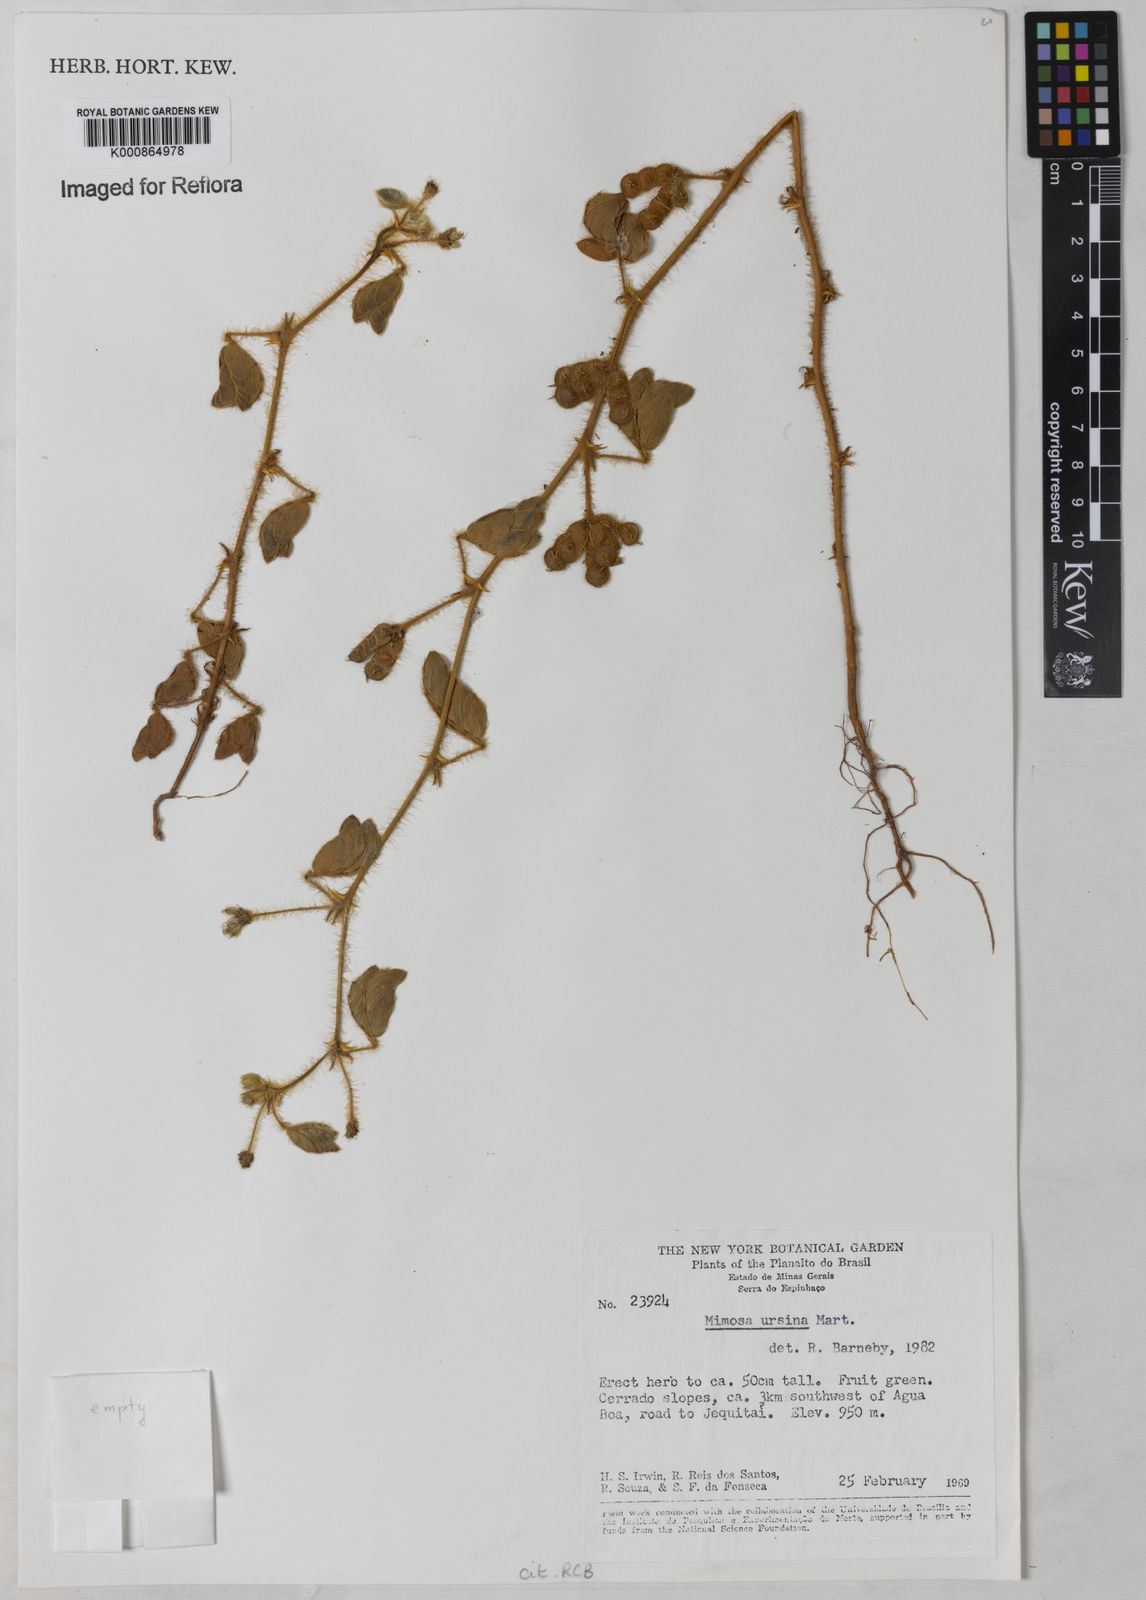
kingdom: Plantae
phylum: Tracheophyta
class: Magnoliopsida
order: Fabales
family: Fabaceae
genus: Mimosa
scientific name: Mimosa ursina
